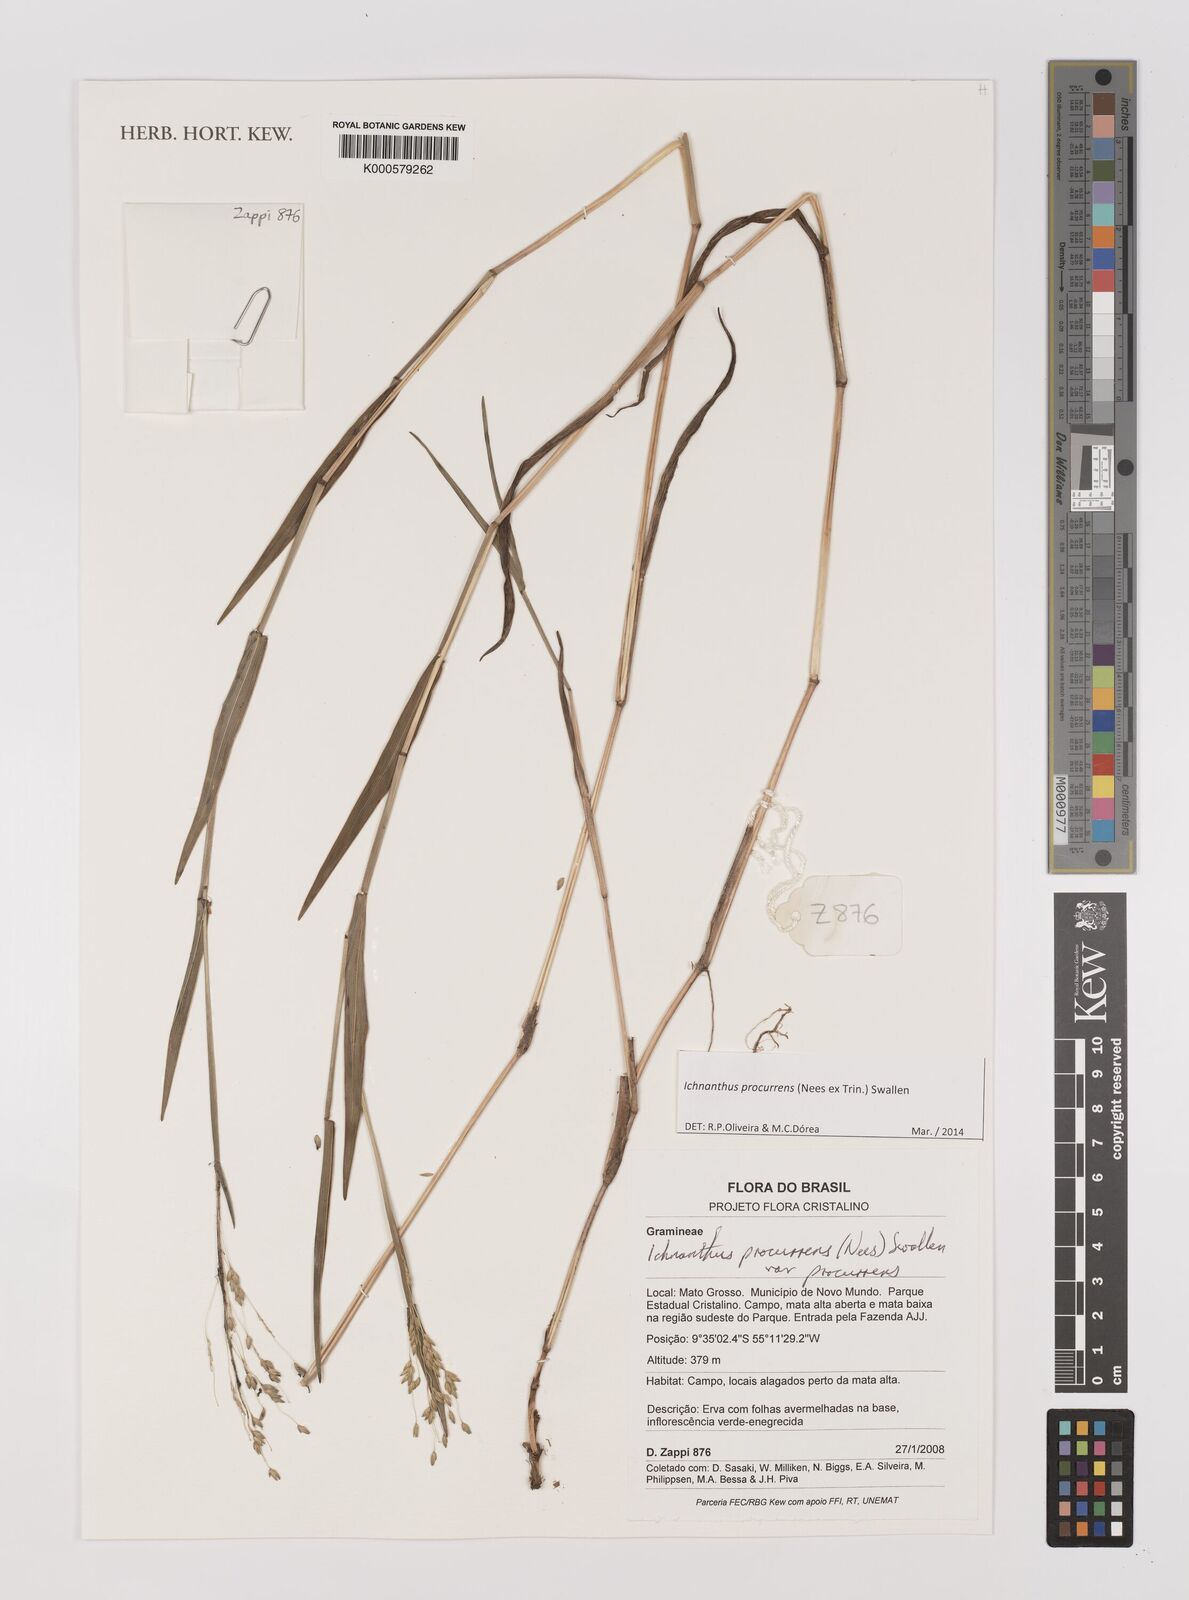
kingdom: Plantae
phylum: Tracheophyta
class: Liliopsida
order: Poales
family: Poaceae
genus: Oedochloa
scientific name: Oedochloa procurrens
